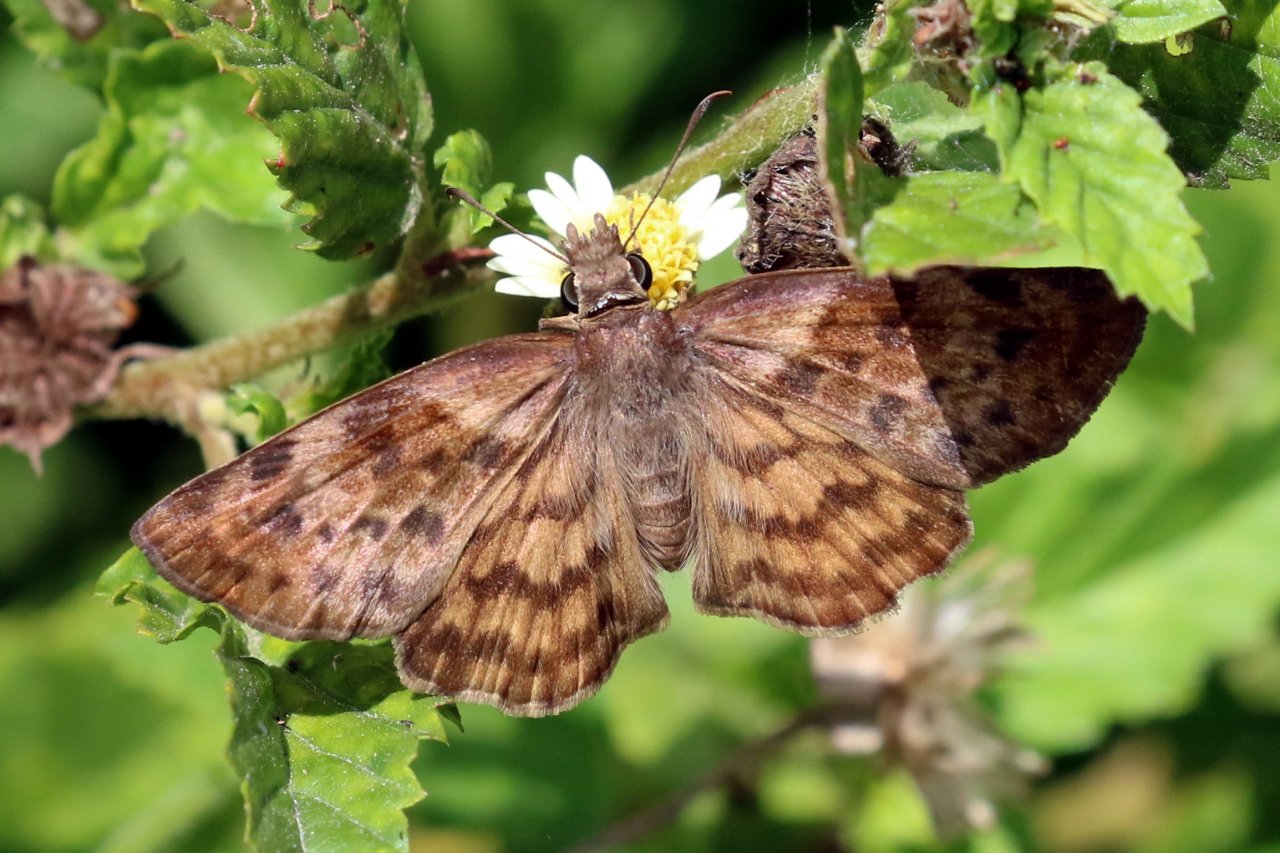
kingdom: Animalia
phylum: Arthropoda
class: Insecta
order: Lepidoptera
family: Hesperiidae
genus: Timochares
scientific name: Timochares ruptifasciata
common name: Brown-banded Skipper
